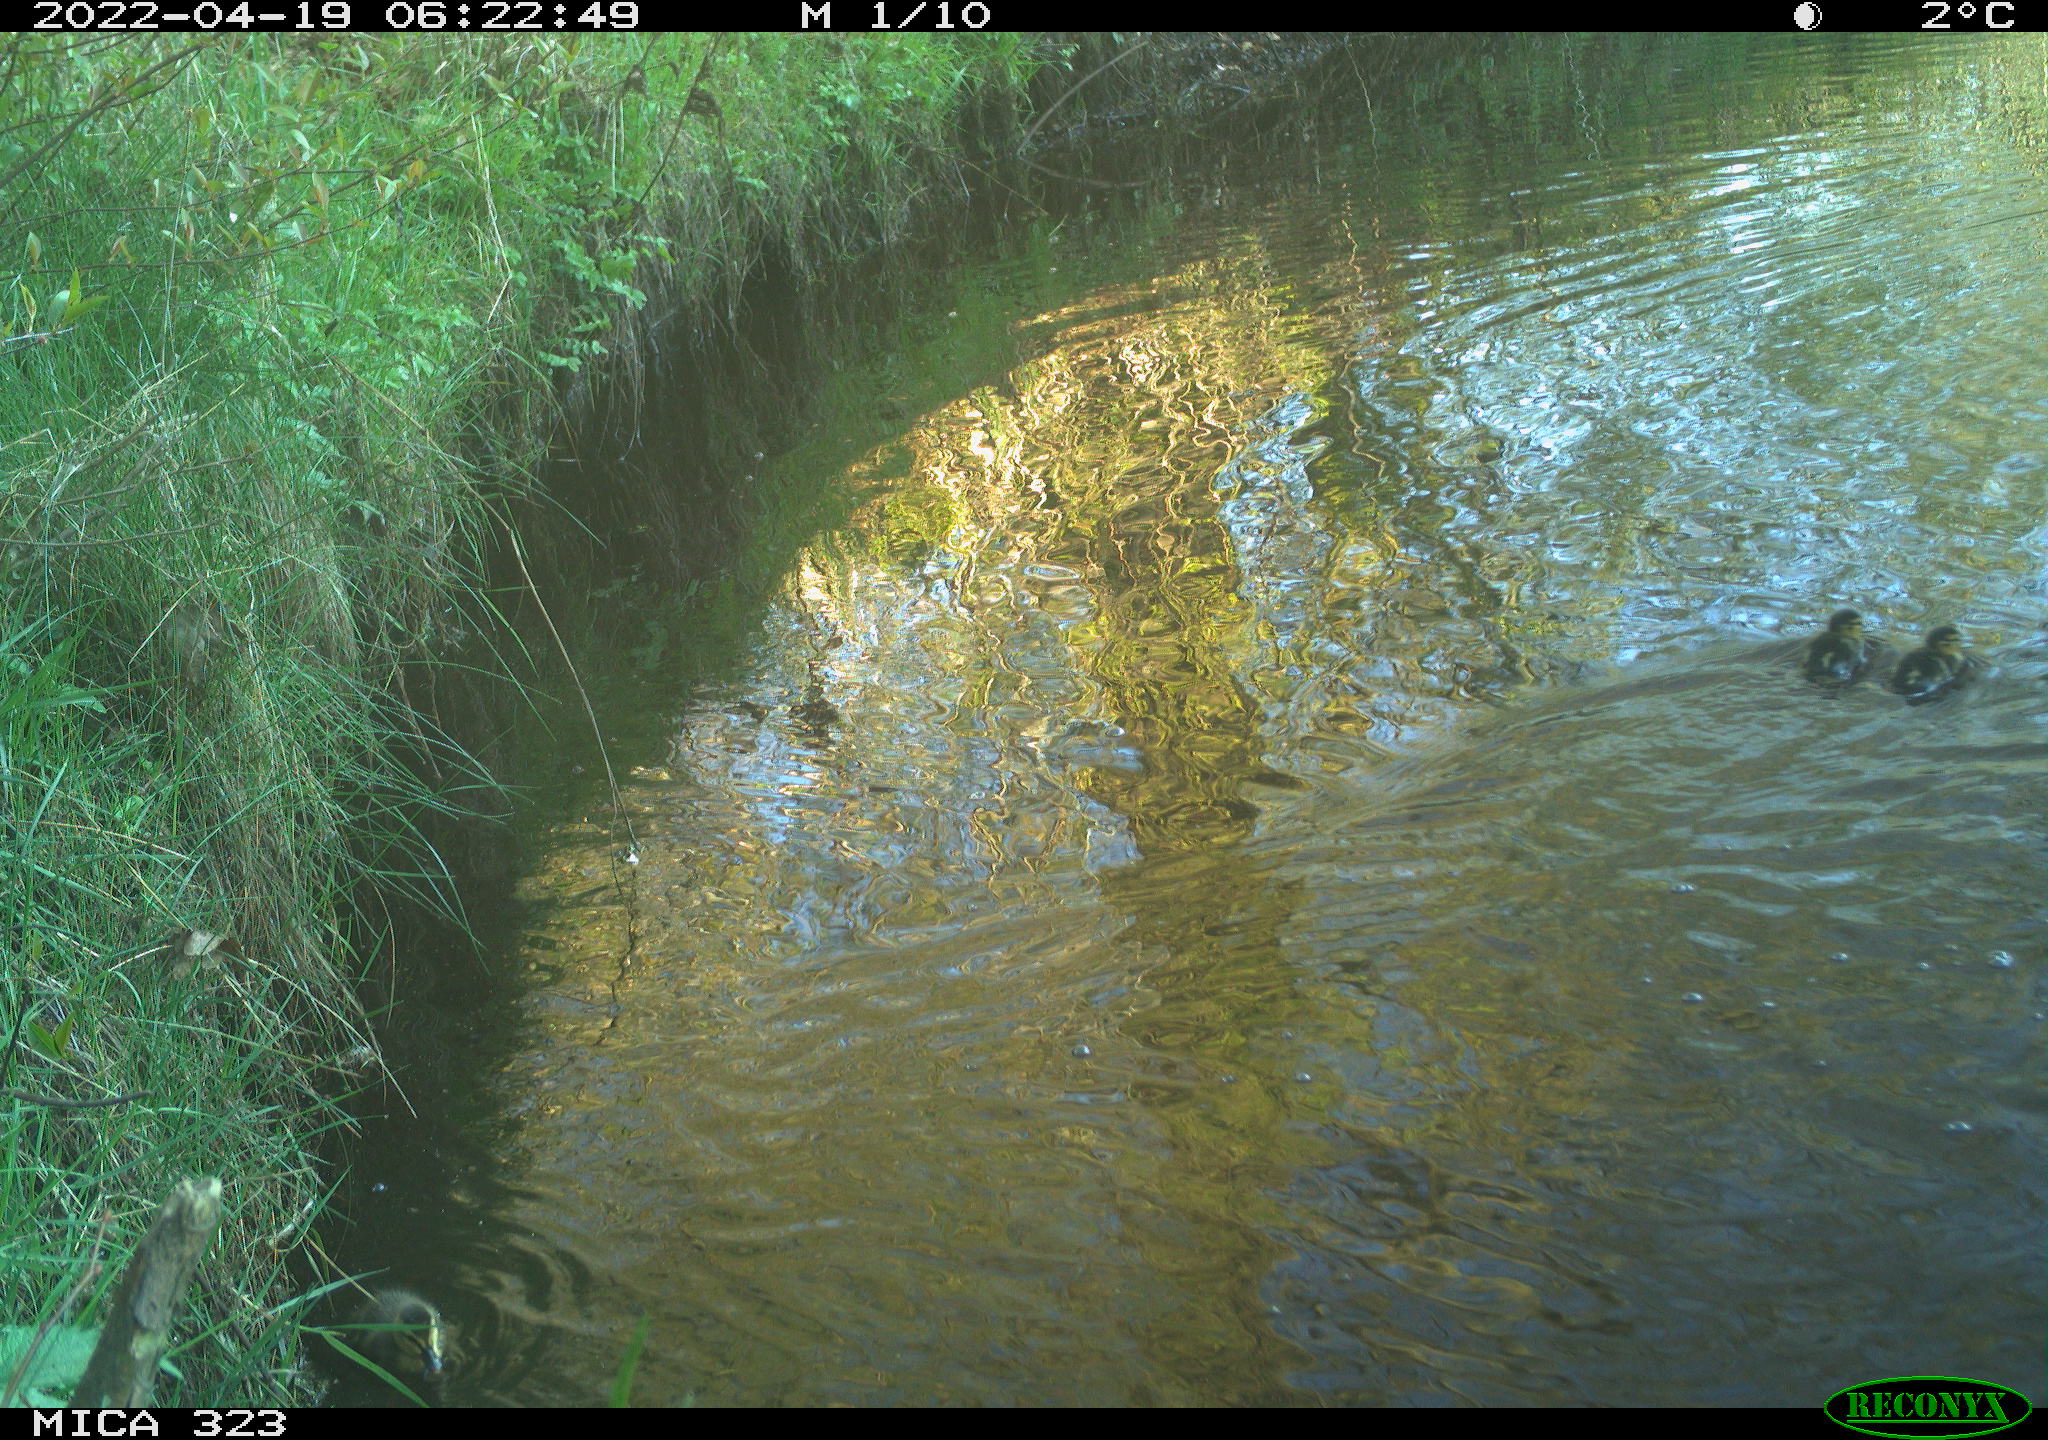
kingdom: Animalia
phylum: Chordata
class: Aves
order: Anseriformes
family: Anatidae
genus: Anas
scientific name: Anas
